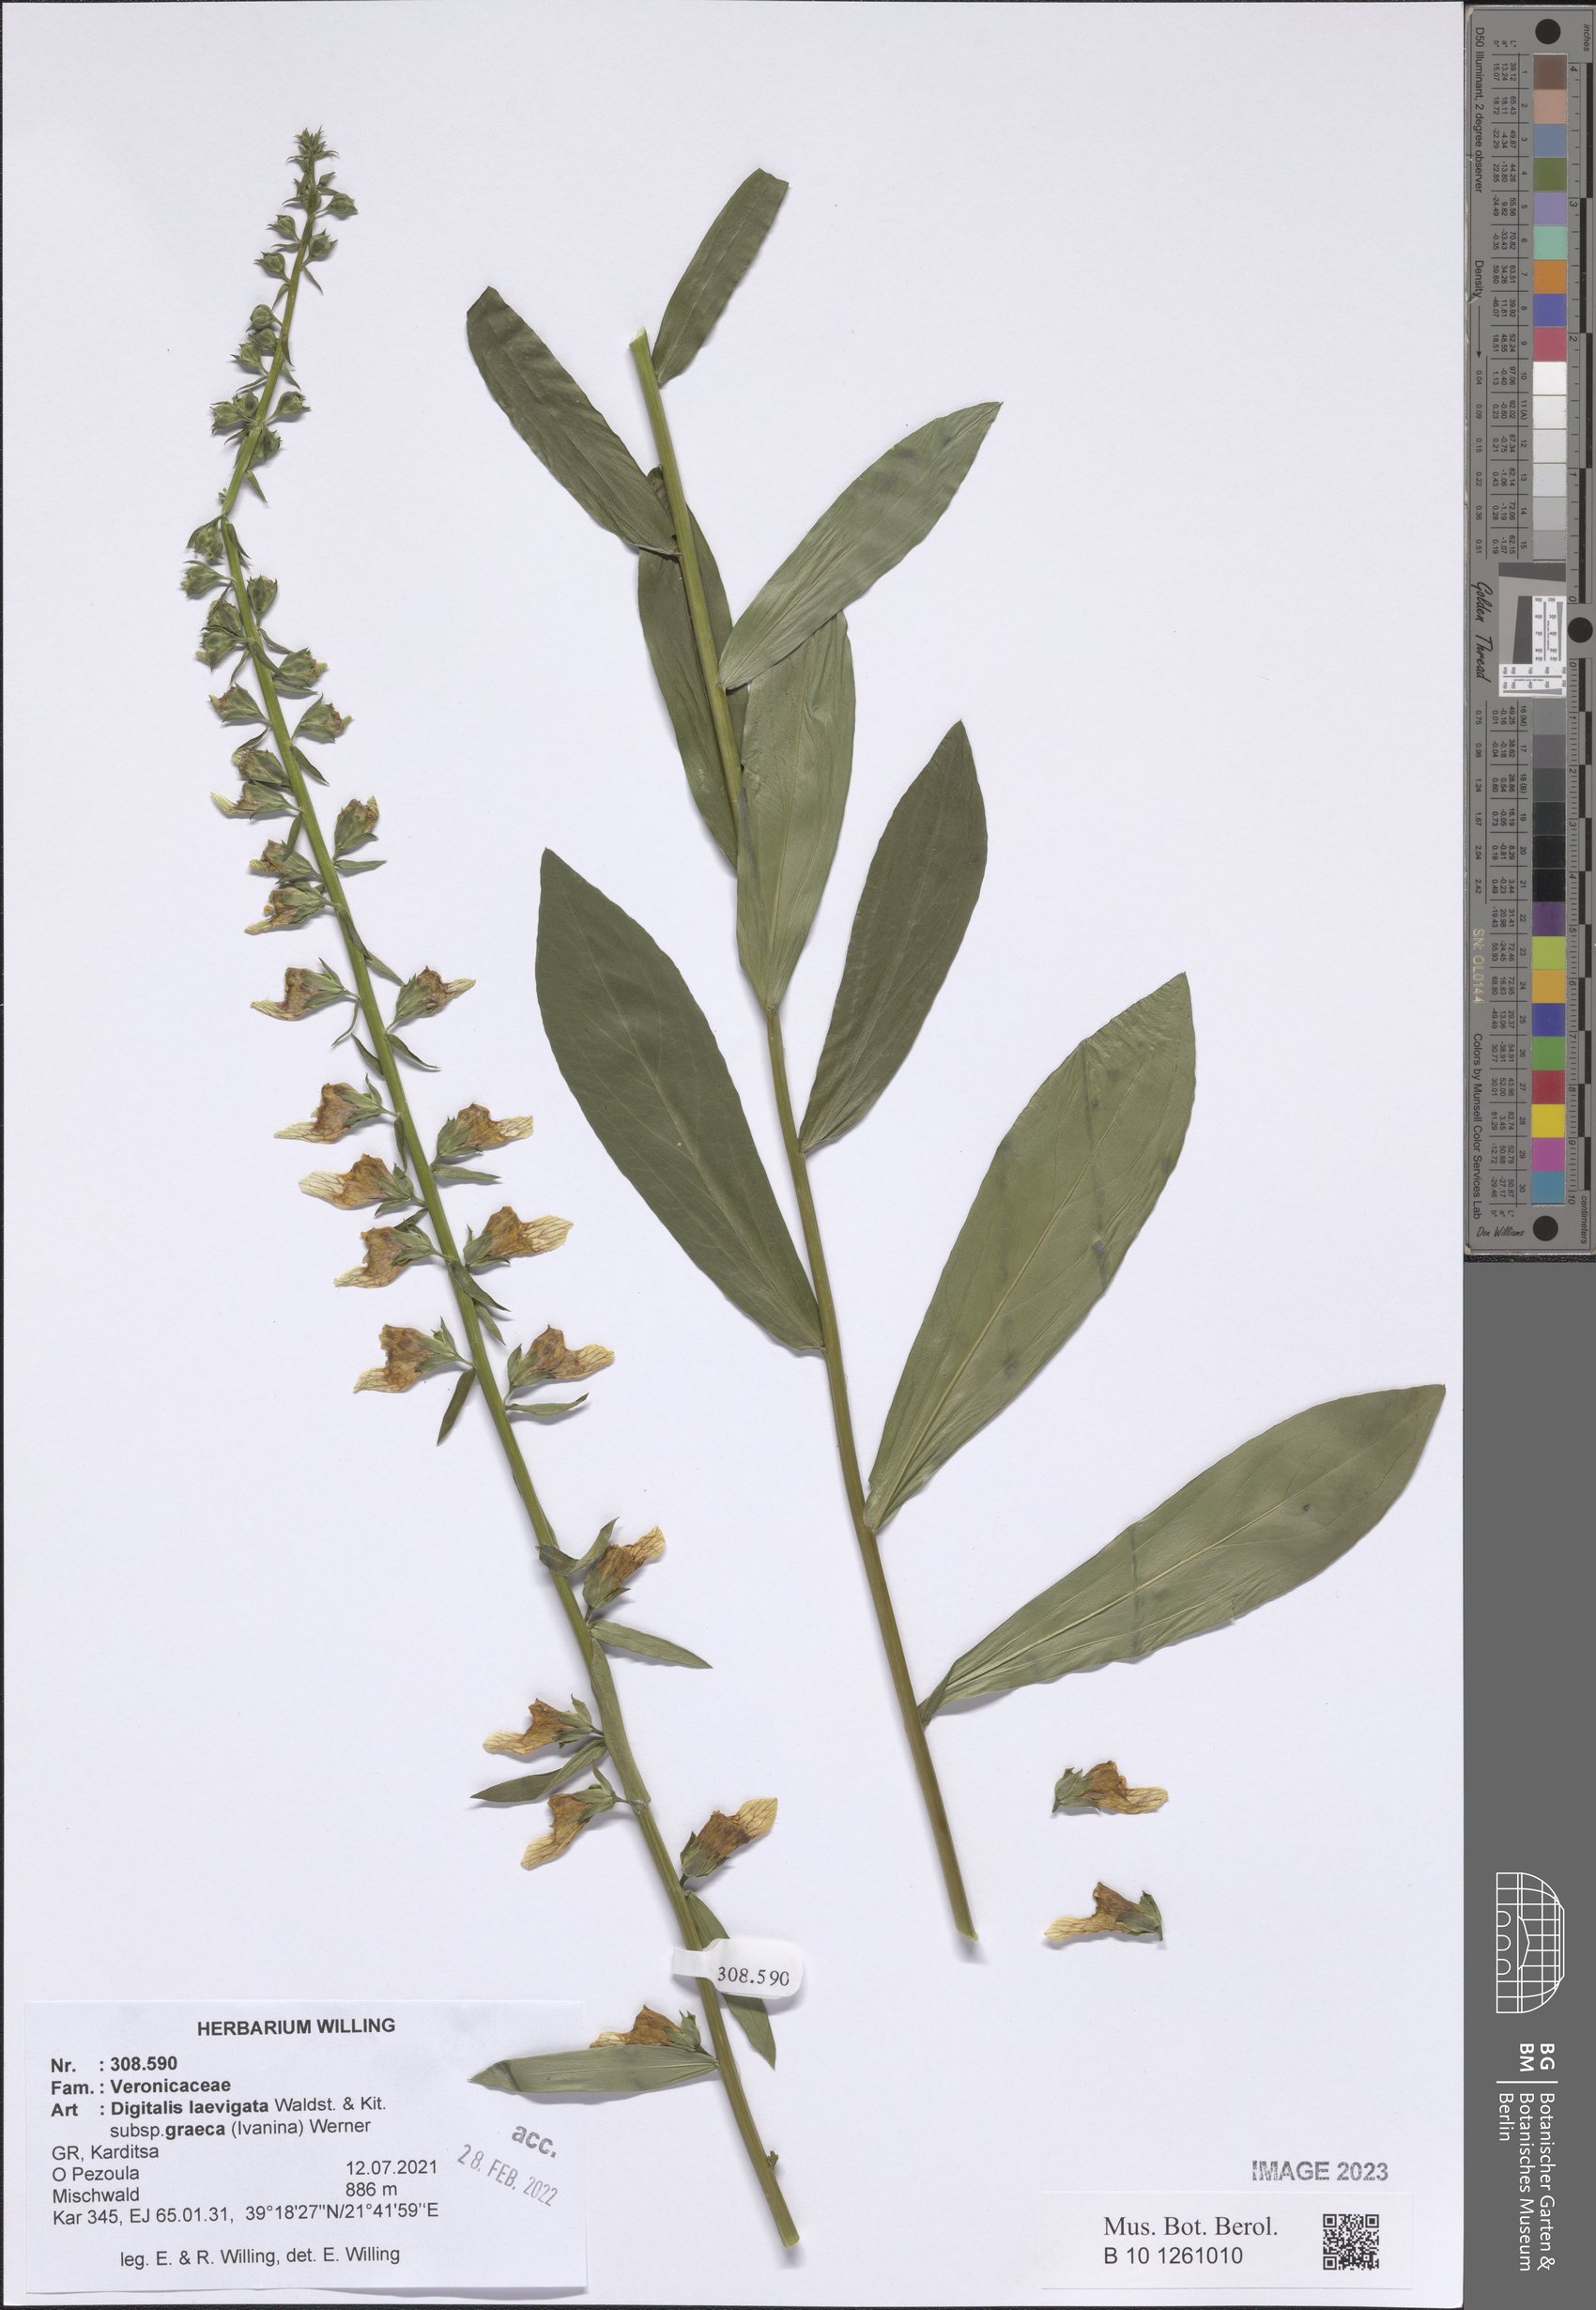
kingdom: Plantae
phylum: Tracheophyta
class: Magnoliopsida
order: Lamiales
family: Plantaginaceae
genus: Digitalis
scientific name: Digitalis laevigata
